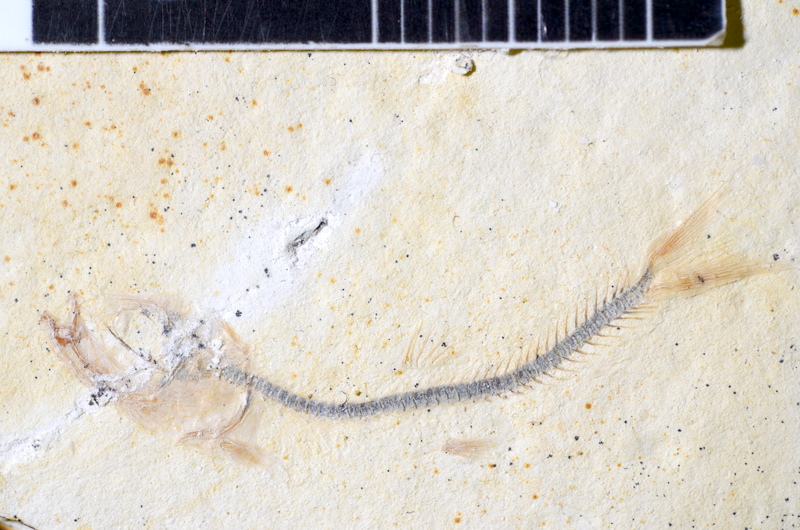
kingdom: Animalia
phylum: Chordata
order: Salmoniformes
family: Orthogonikleithridae
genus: Orthogonikleithrus
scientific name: Orthogonikleithrus hoelli
